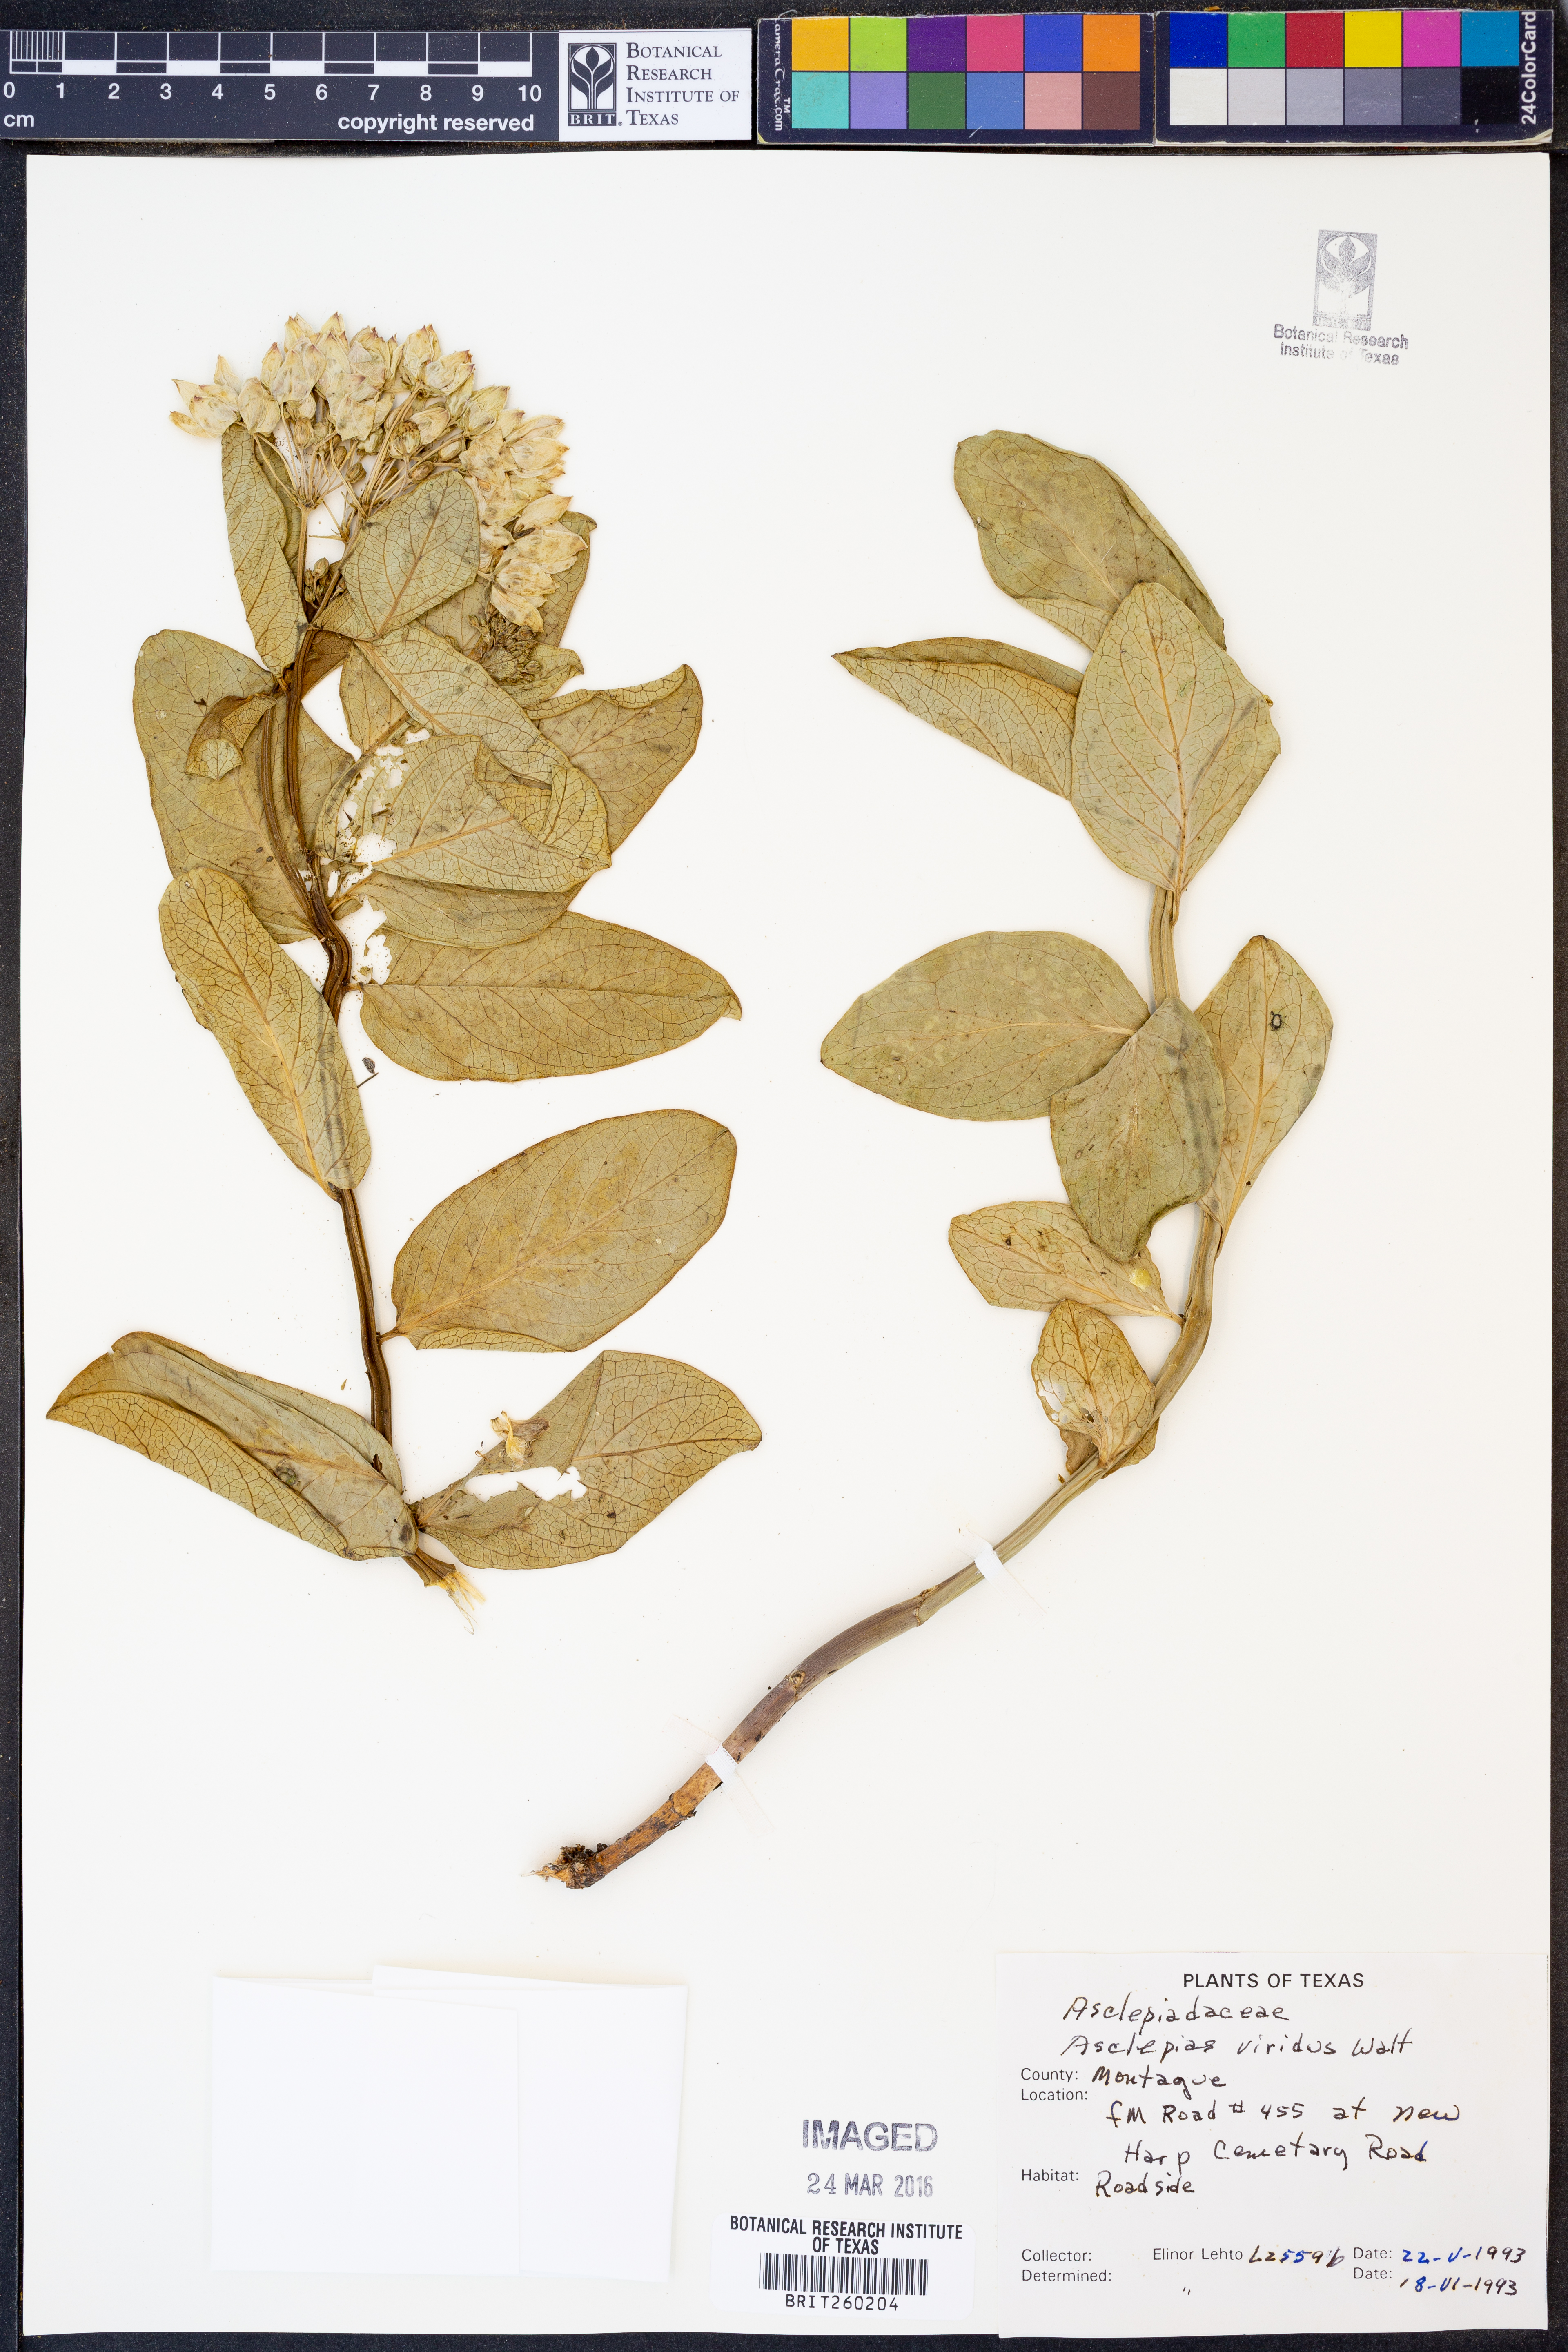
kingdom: Plantae
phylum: Tracheophyta
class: Magnoliopsida
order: Gentianales
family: Apocynaceae
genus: Asclepias
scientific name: Asclepias viridis
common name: Antelope-horns
